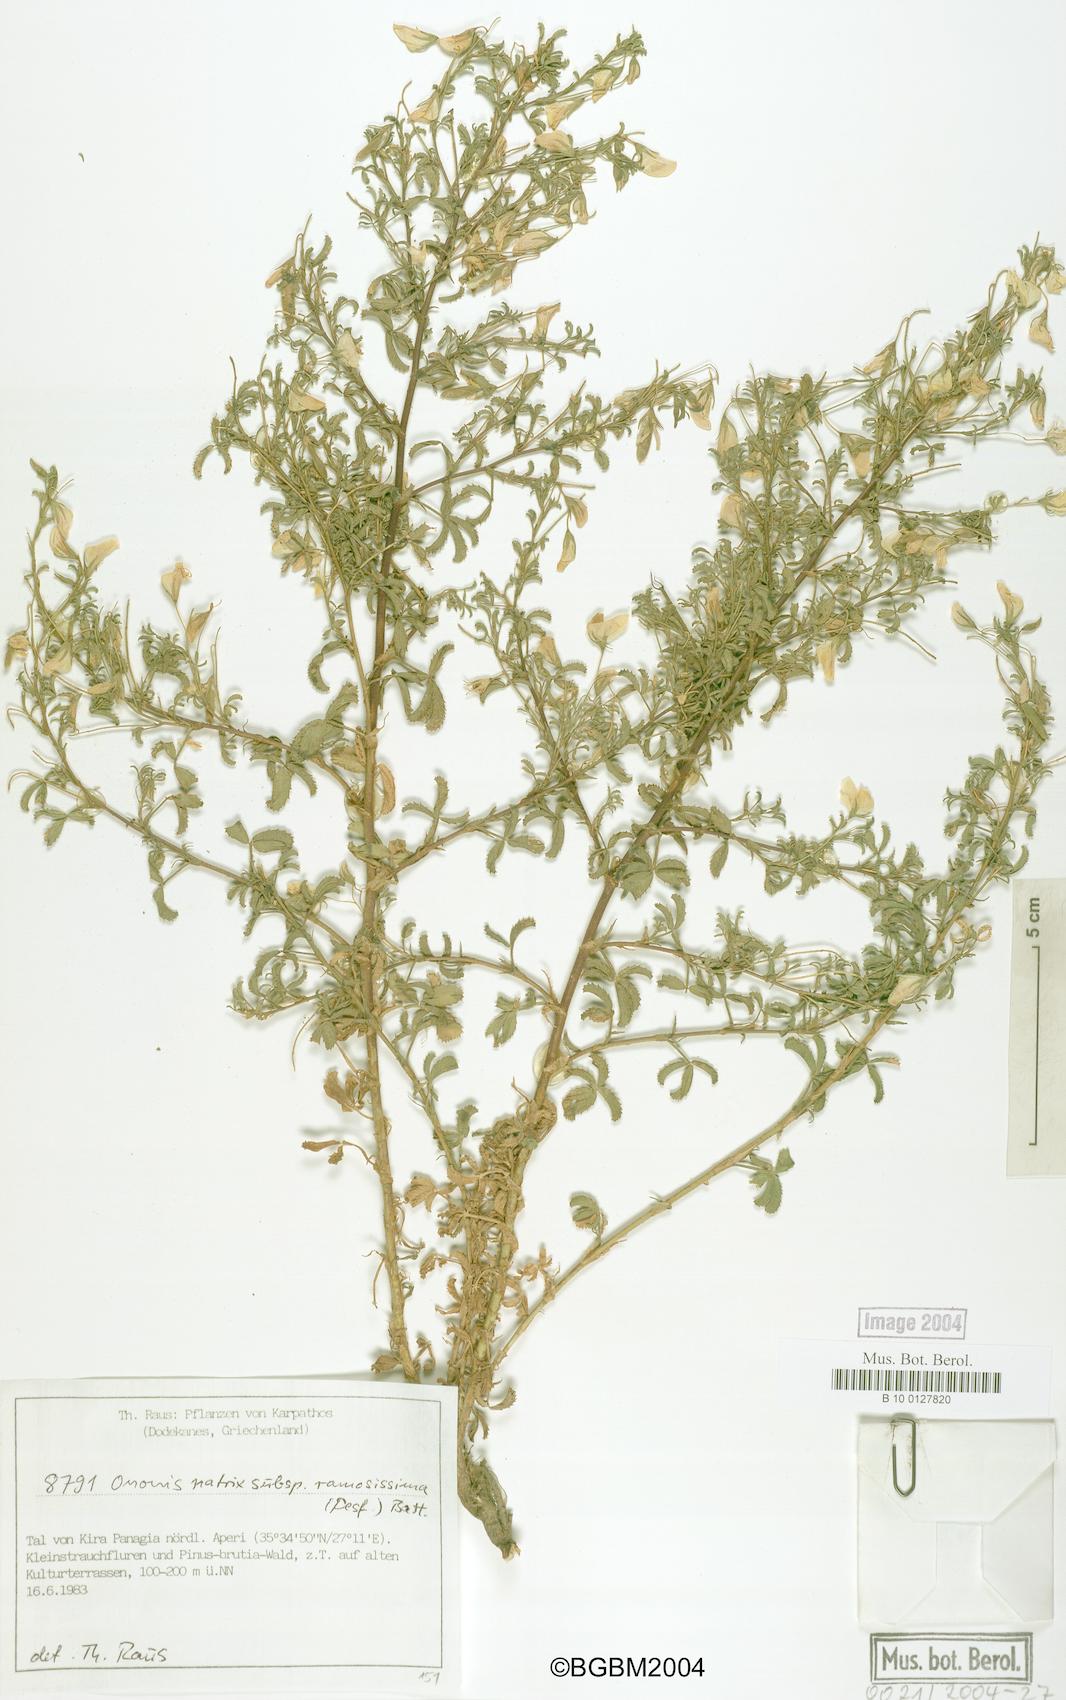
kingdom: Plantae
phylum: Tracheophyta
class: Magnoliopsida
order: Fabales
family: Fabaceae
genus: Ononis
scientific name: Ononis natrix
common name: Yellow restharrow
